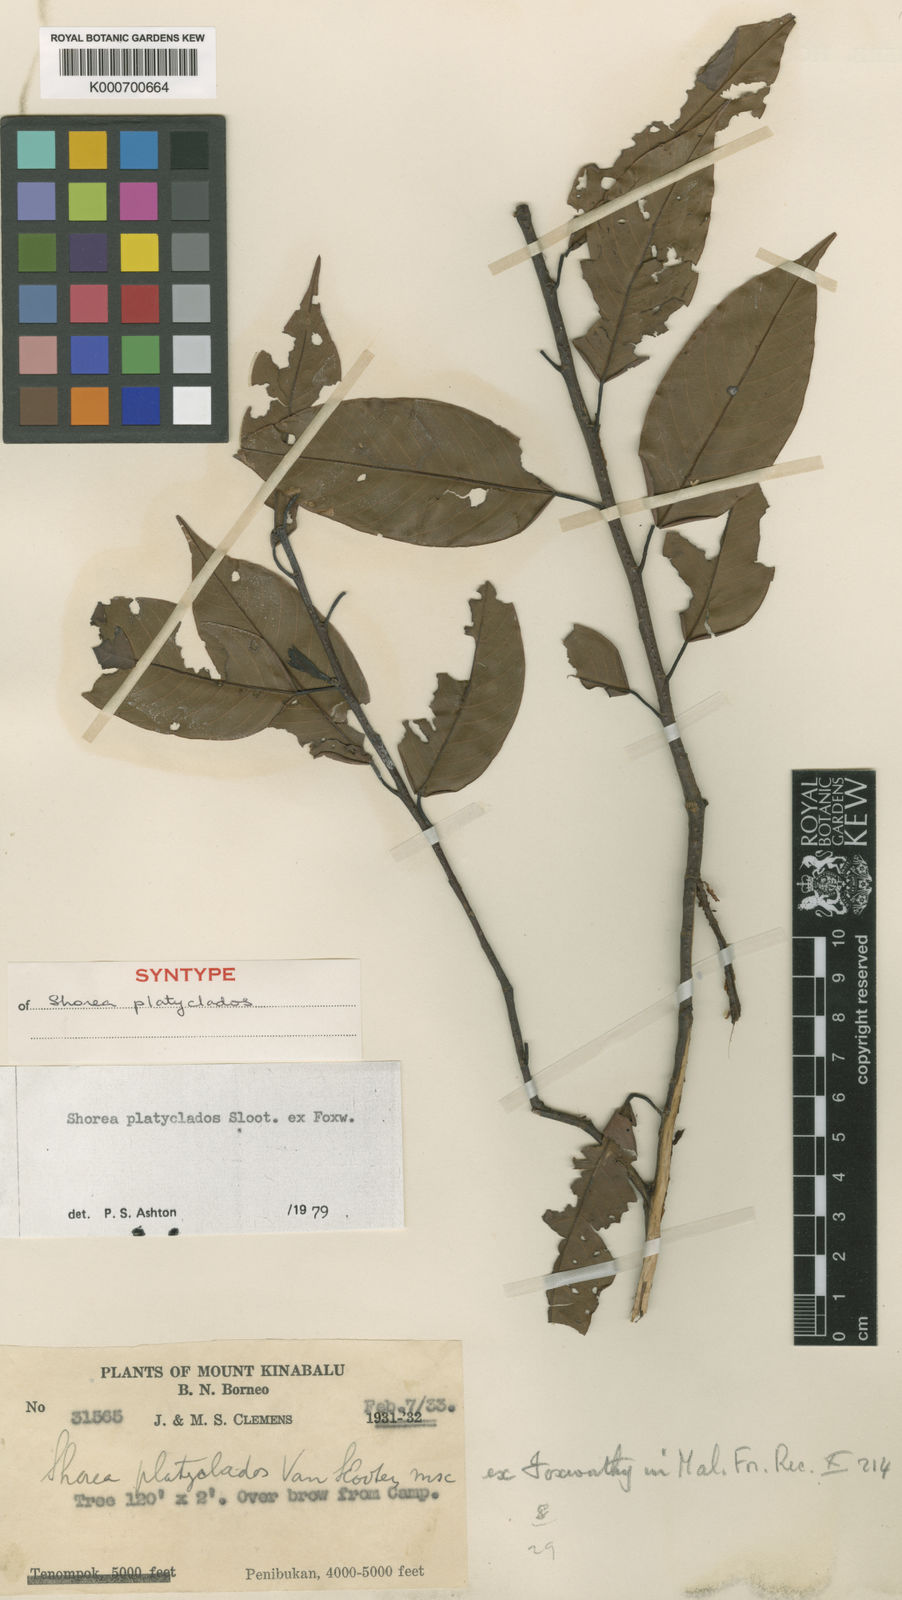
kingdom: Plantae
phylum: Tracheophyta
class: Magnoliopsida
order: Malvales
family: Dipterocarpaceae
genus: Shorea
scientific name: Shorea
